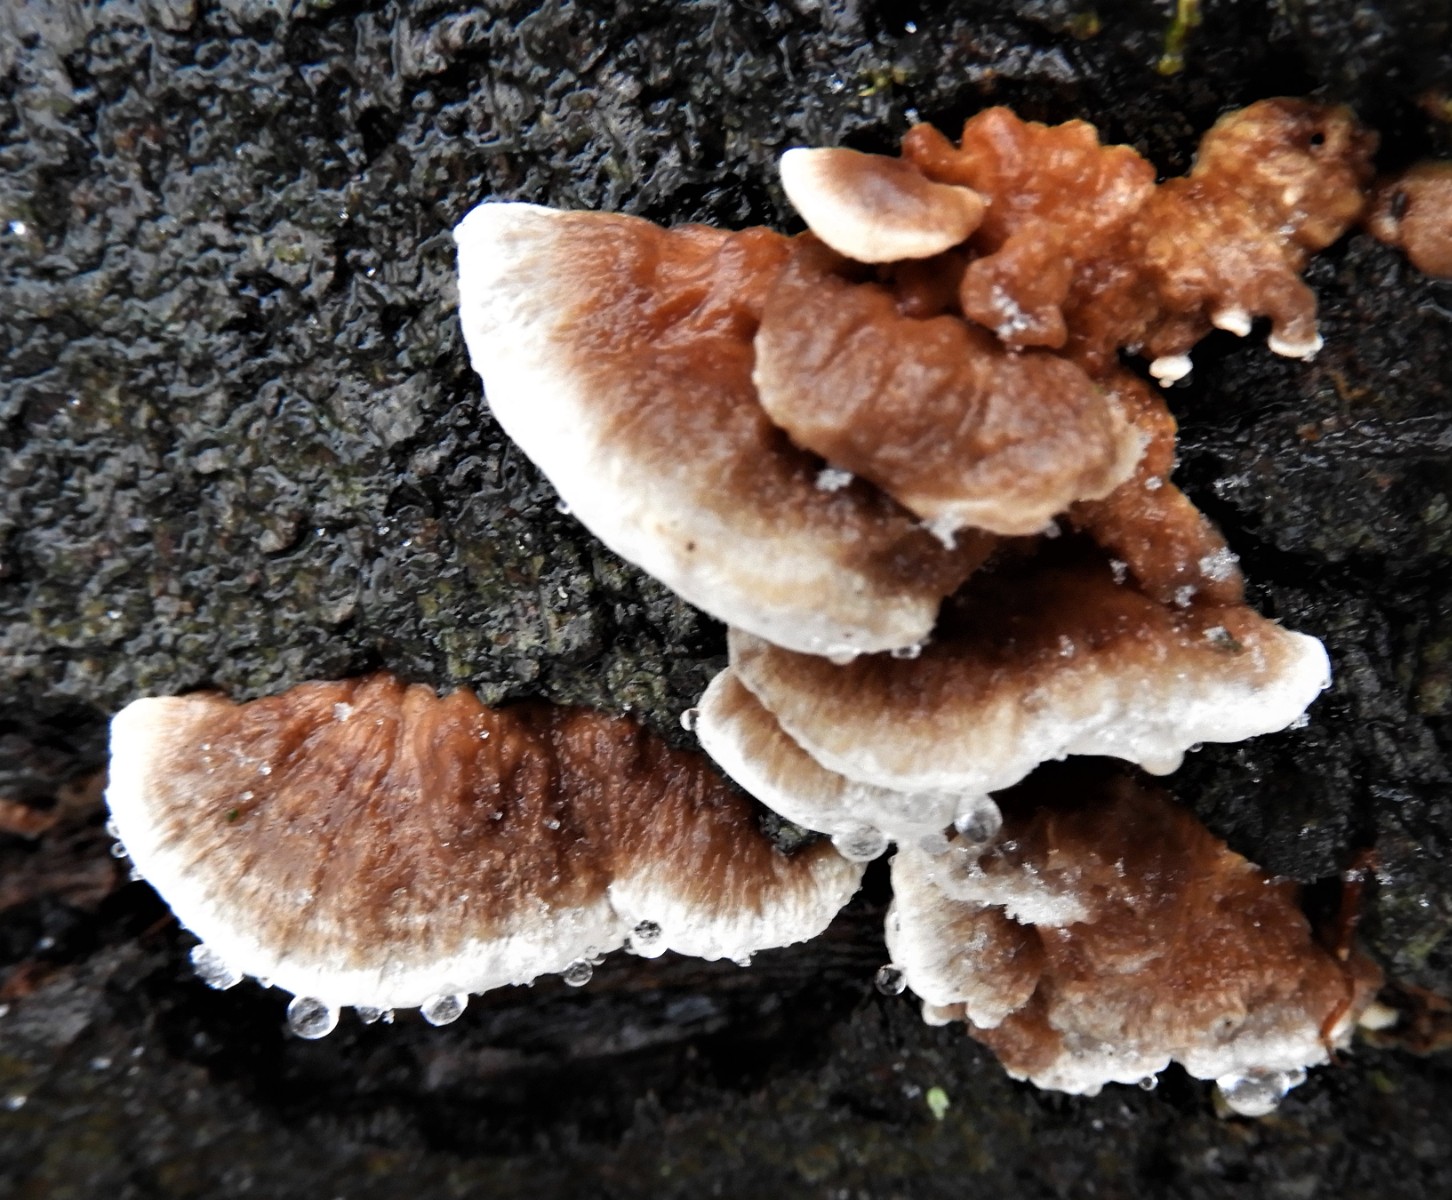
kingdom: Fungi
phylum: Basidiomycota
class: Agaricomycetes
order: Polyporales
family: Polyporaceae
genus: Trametes
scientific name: Trametes ochracea
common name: bæltet læderporesvamp
